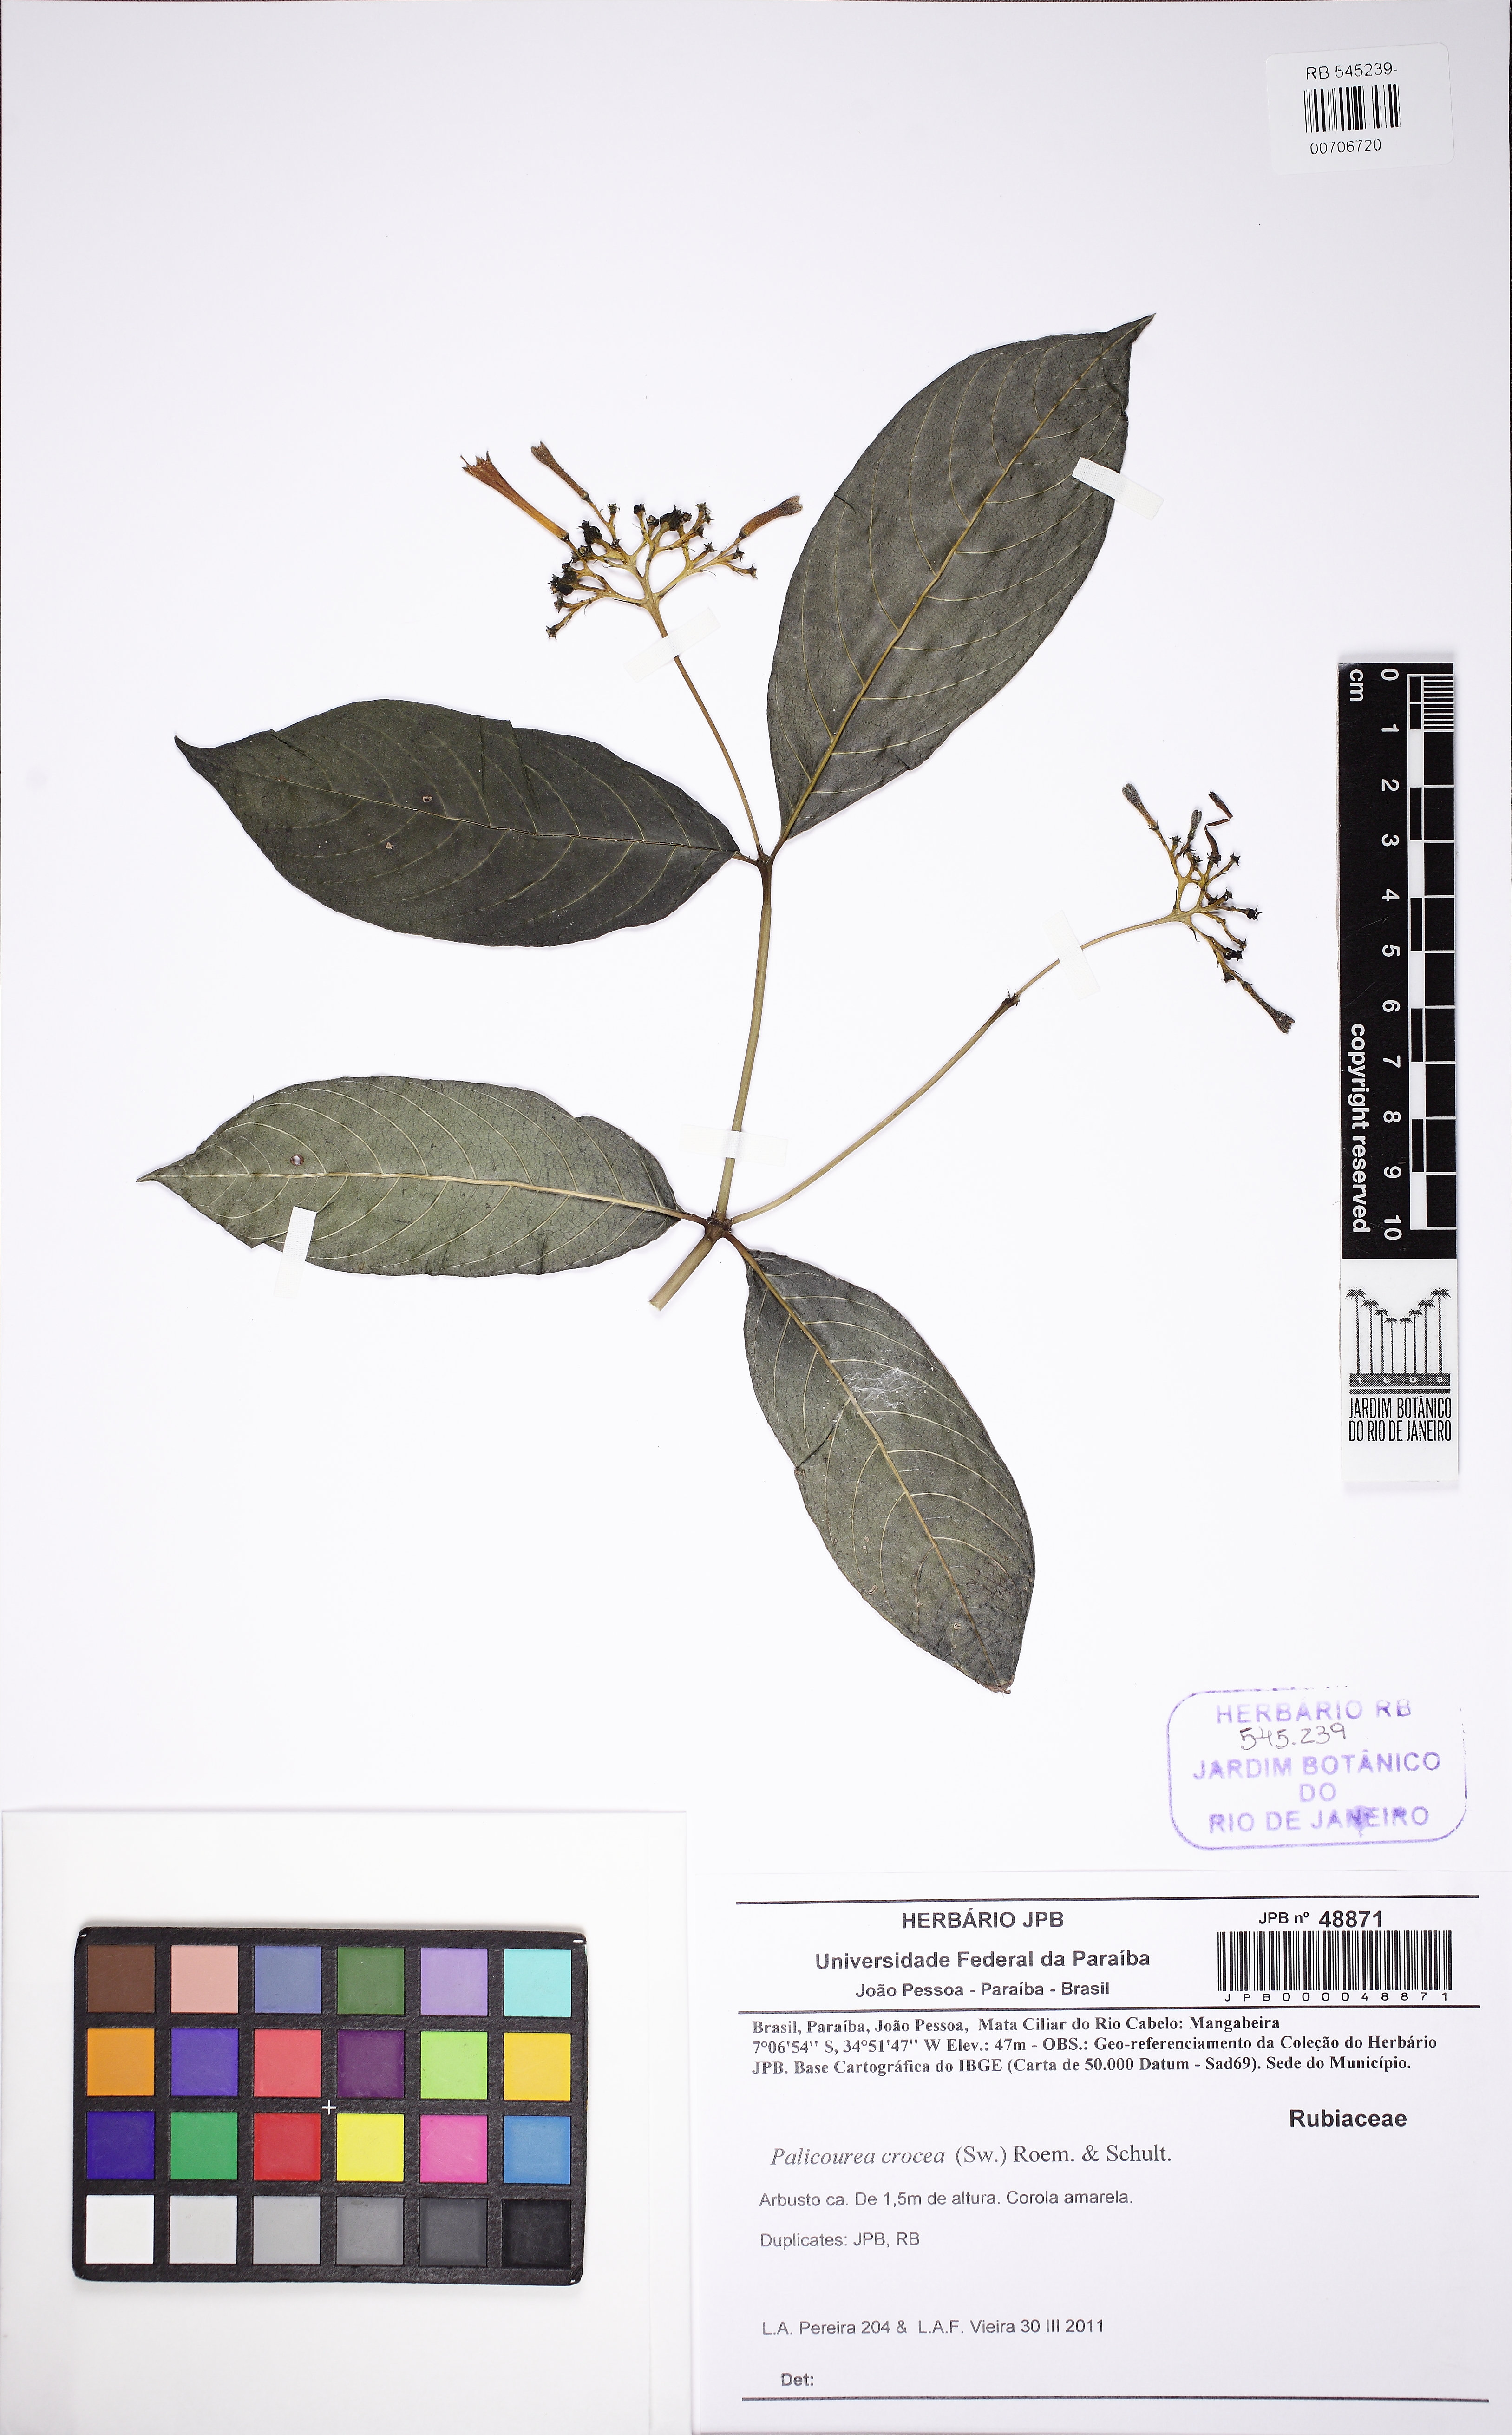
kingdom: Plantae
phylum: Tracheophyta
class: Magnoliopsida
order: Gentianales
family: Rubiaceae
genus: Palicourea
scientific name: Palicourea crocea
